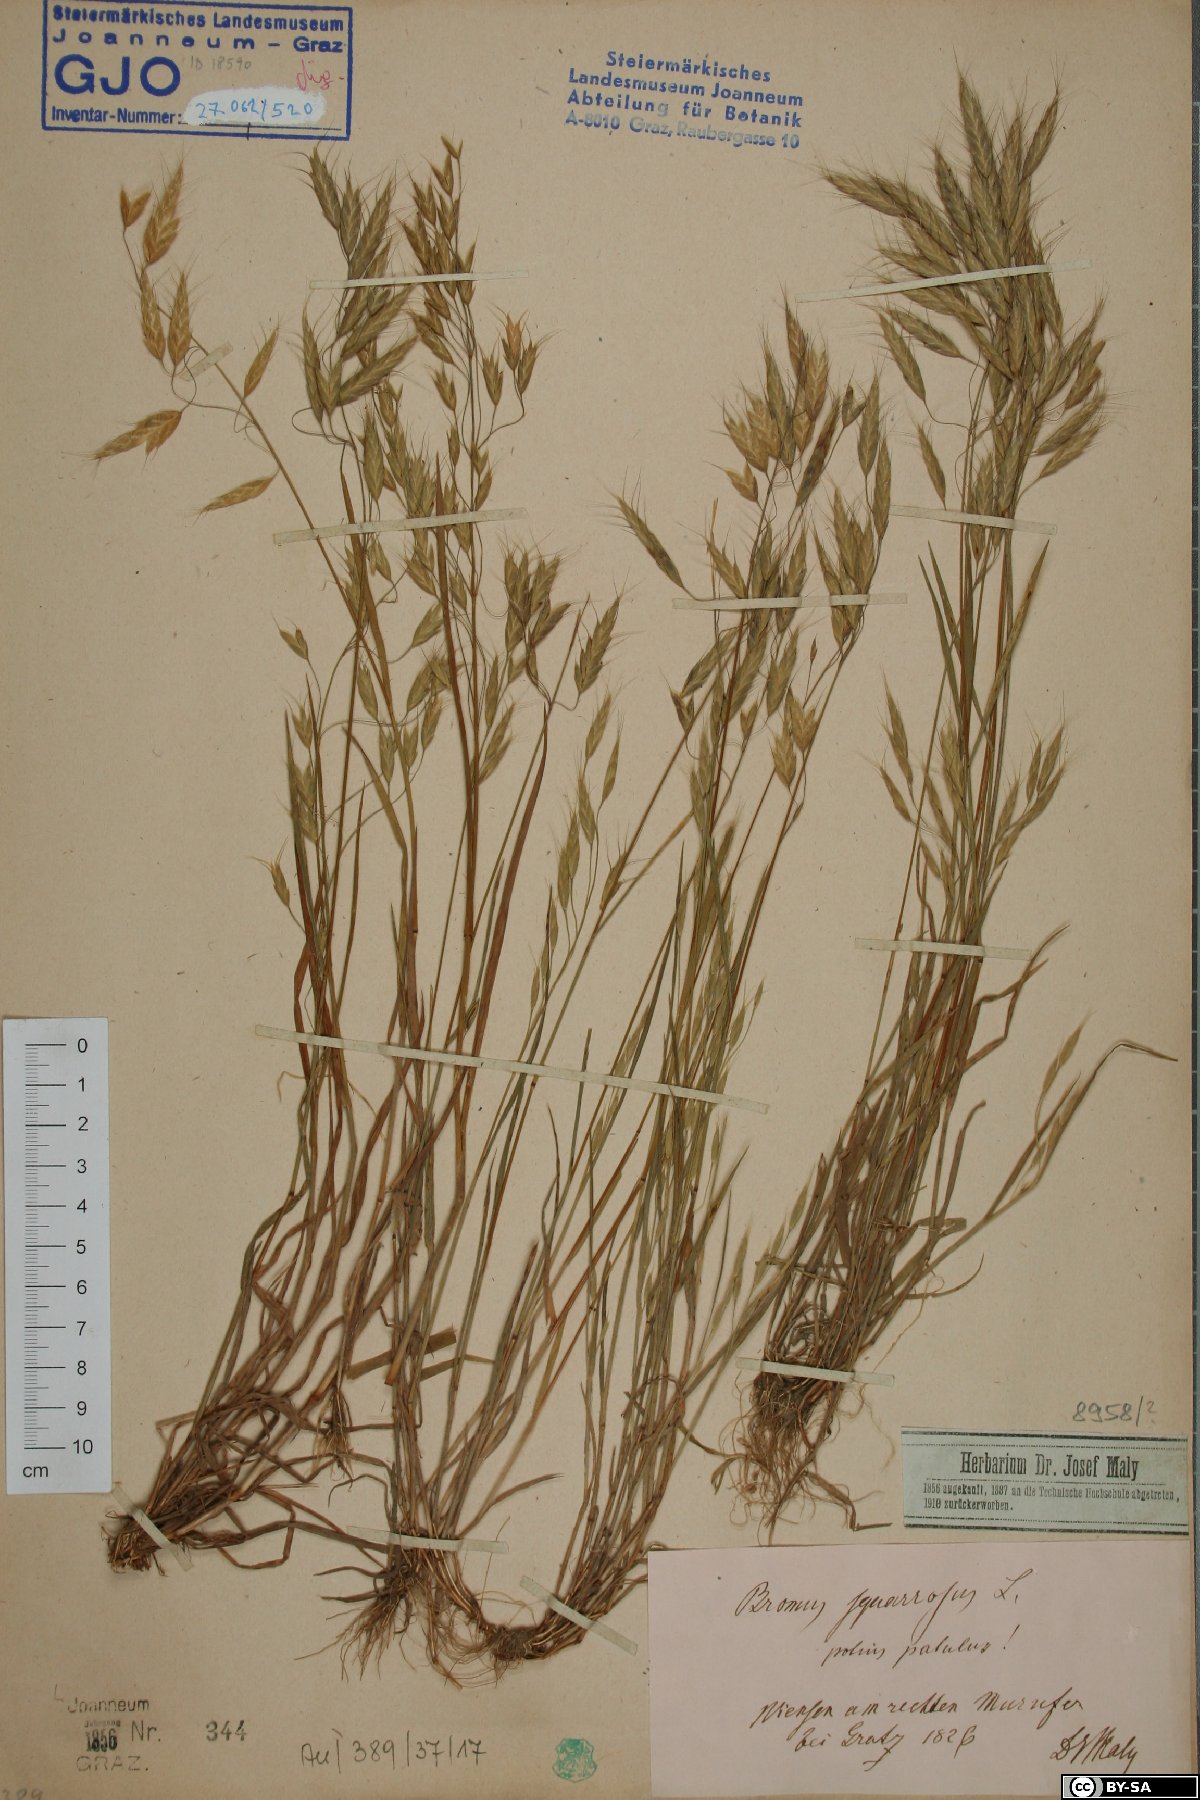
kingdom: Plantae
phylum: Tracheophyta
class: Liliopsida
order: Poales
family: Poaceae
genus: Bromus
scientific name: Bromus squarrosus
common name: Corn brome
